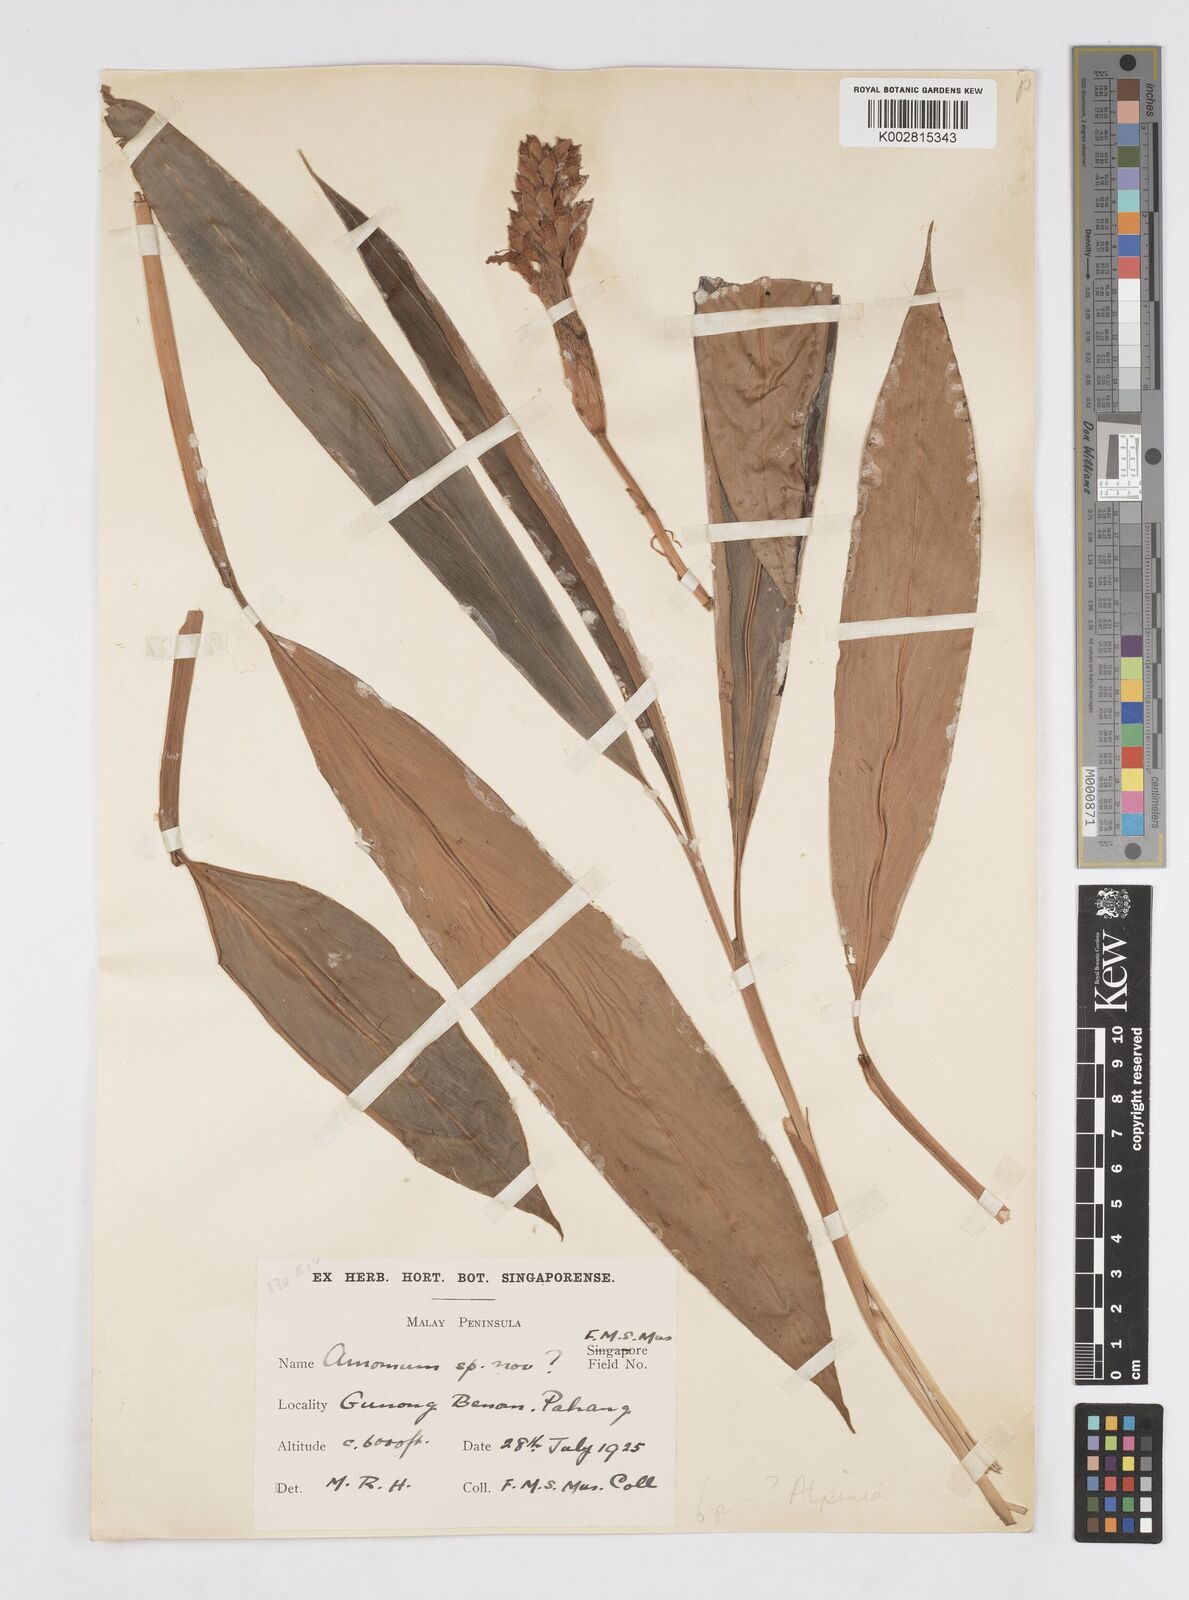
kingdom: Plantae
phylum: Tracheophyta
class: Liliopsida
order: Zingiberales
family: Zingiberaceae
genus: Alpinia
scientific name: Alpinia
